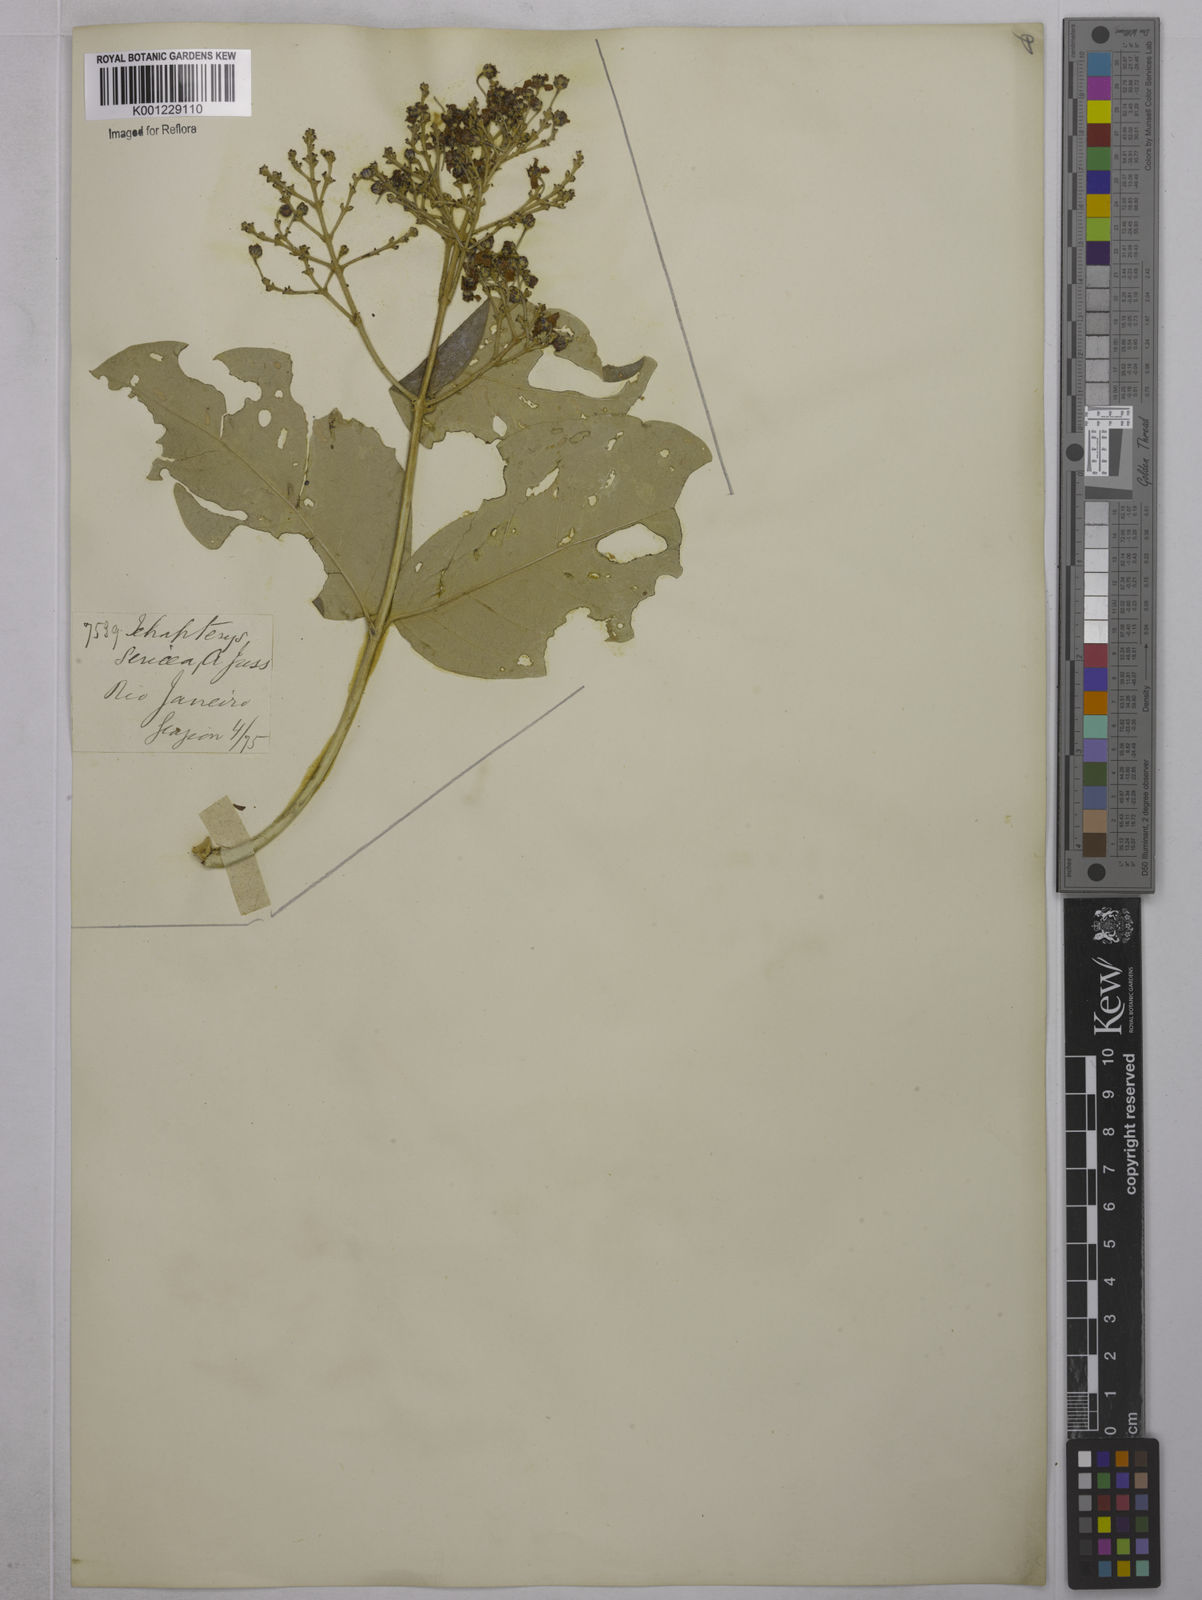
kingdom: Plantae
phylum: Tracheophyta
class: Magnoliopsida
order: Malpighiales
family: Malpighiaceae
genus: Niedenzuella
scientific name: Niedenzuella sericea
